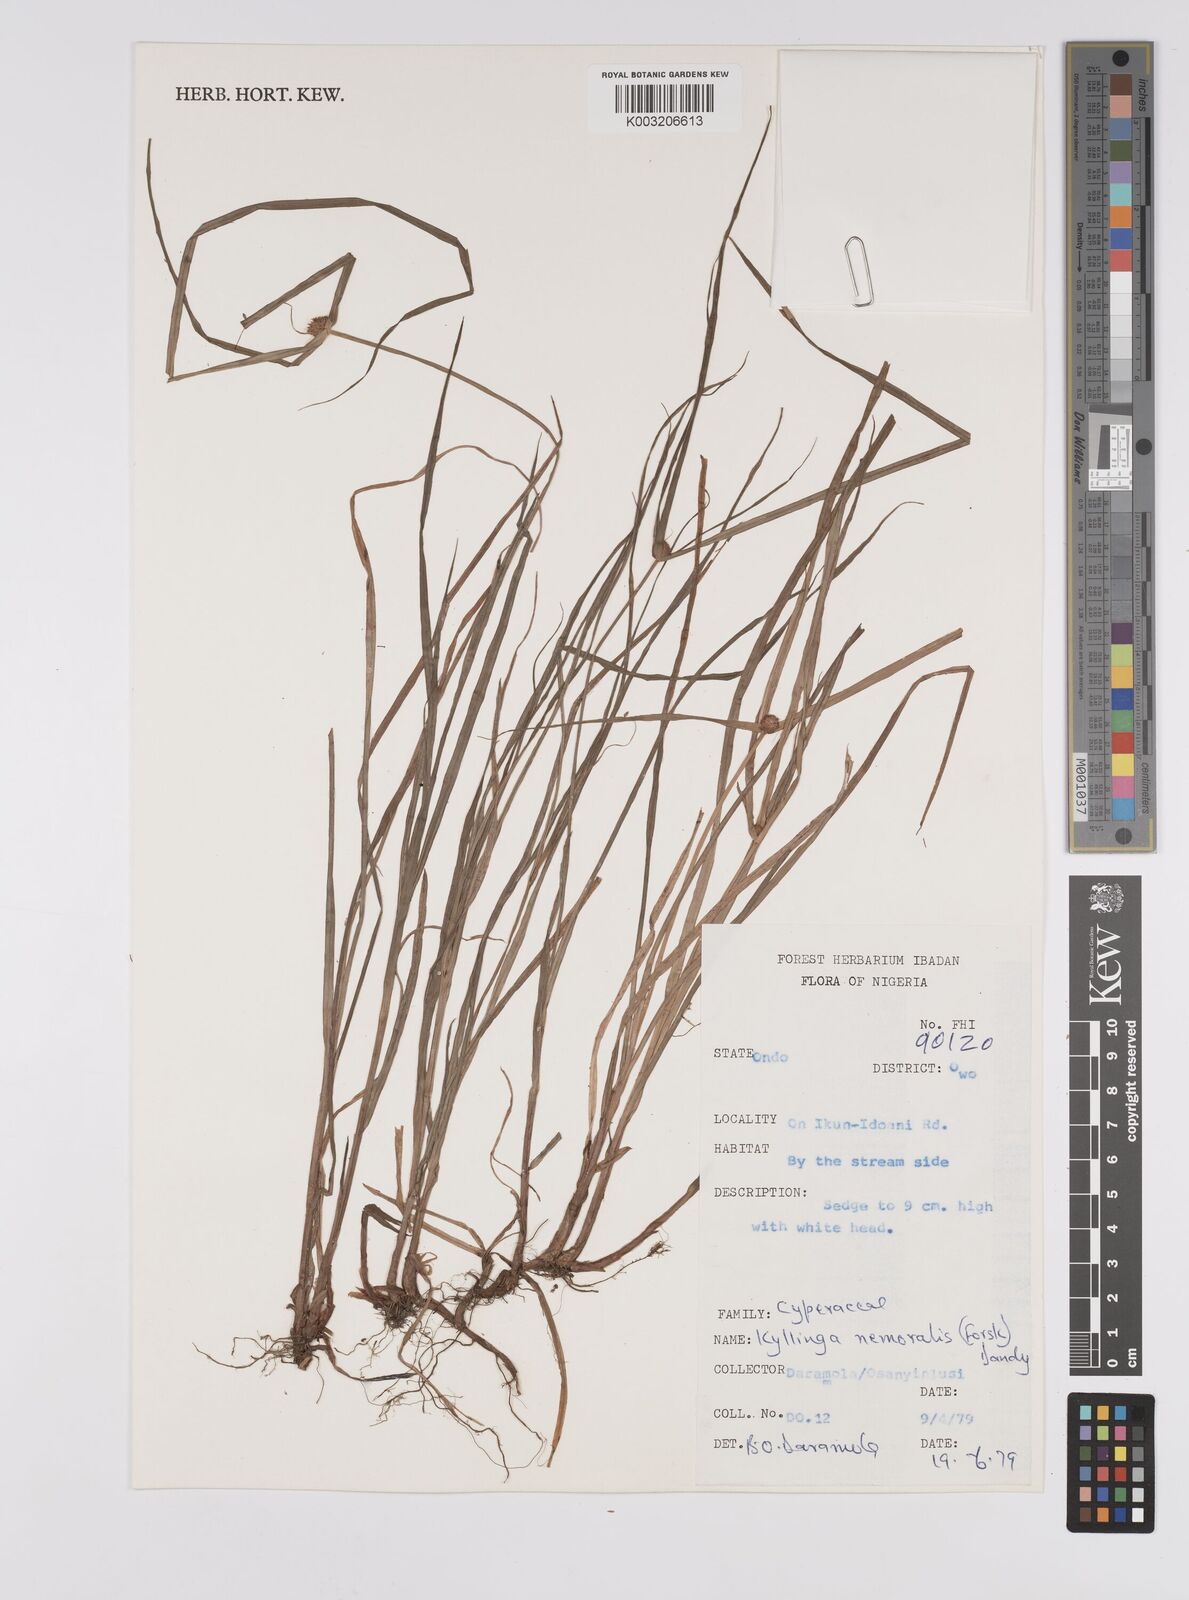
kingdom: Plantae
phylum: Tracheophyta
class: Liliopsida
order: Poales
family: Cyperaceae
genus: Cyperus
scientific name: Cyperus nemoralis
